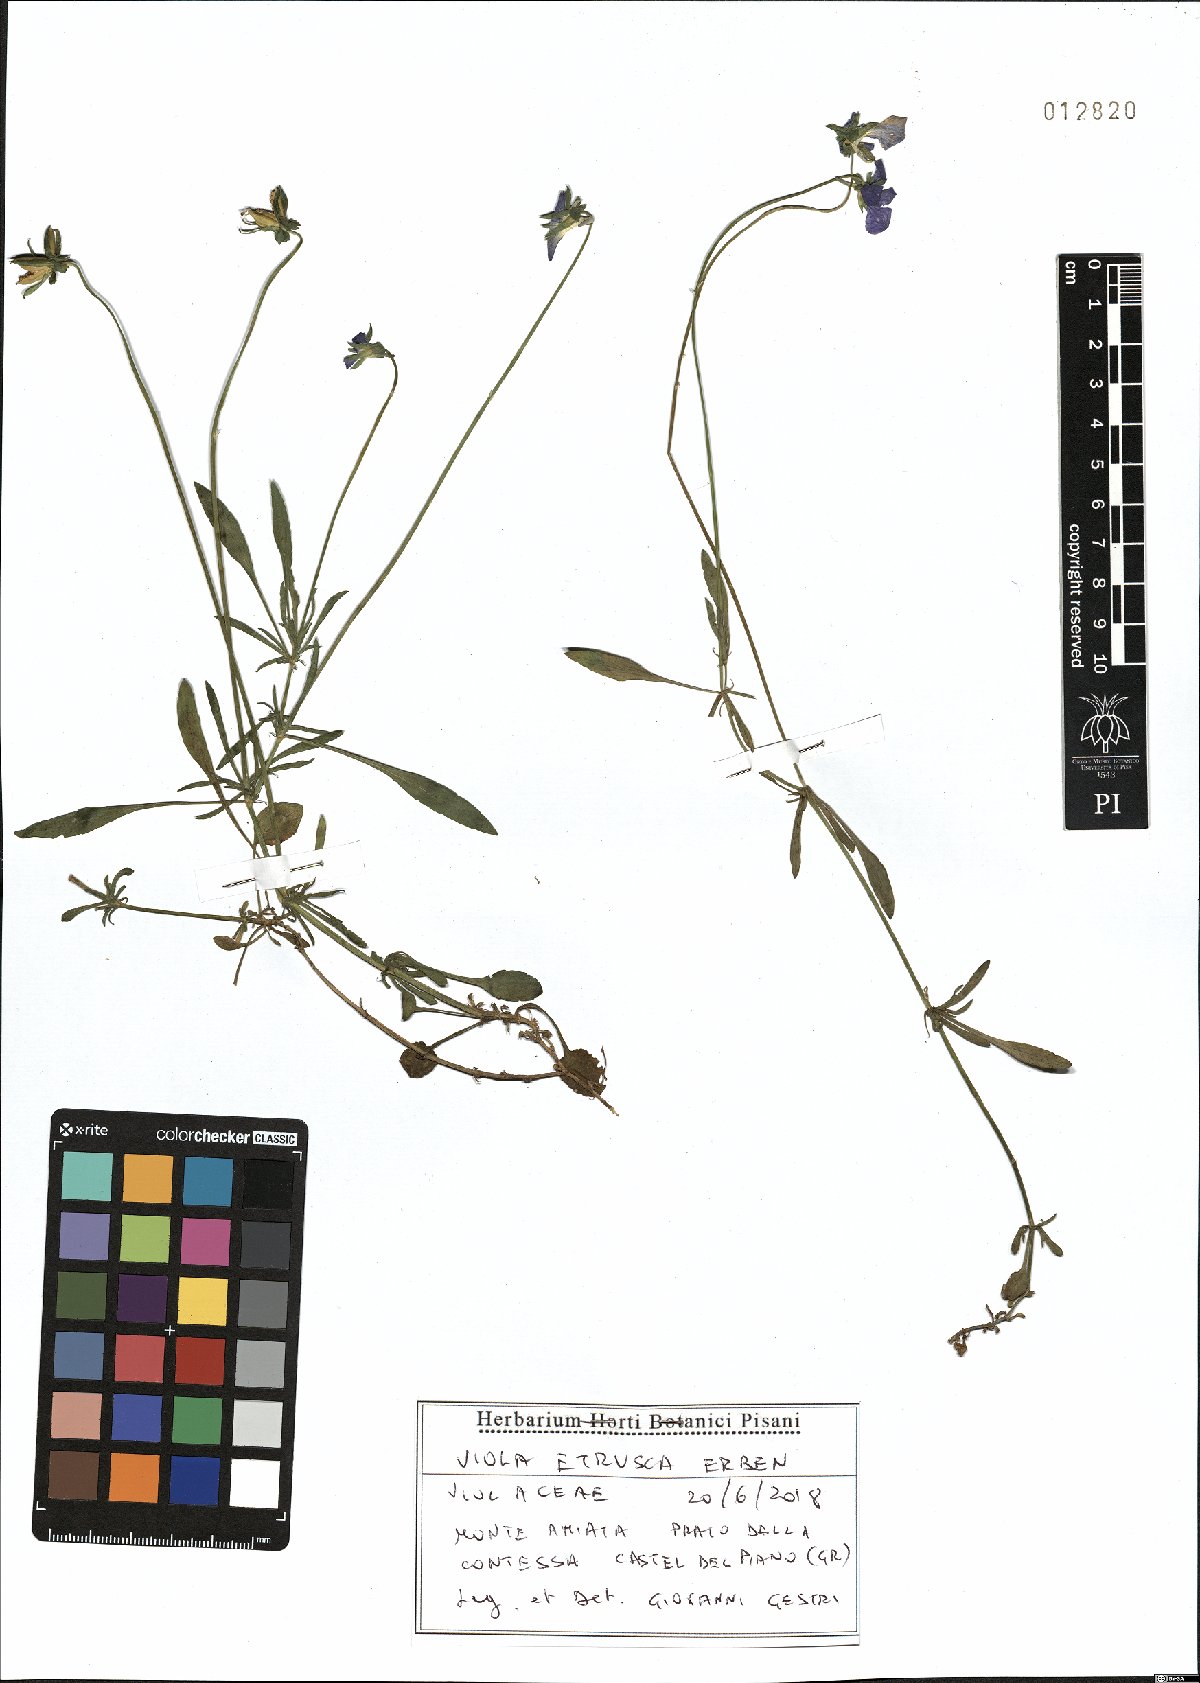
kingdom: Plantae
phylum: Tracheophyta
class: Magnoliopsida
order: Malpighiales
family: Violaceae
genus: Viola
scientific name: Viola etrusca
